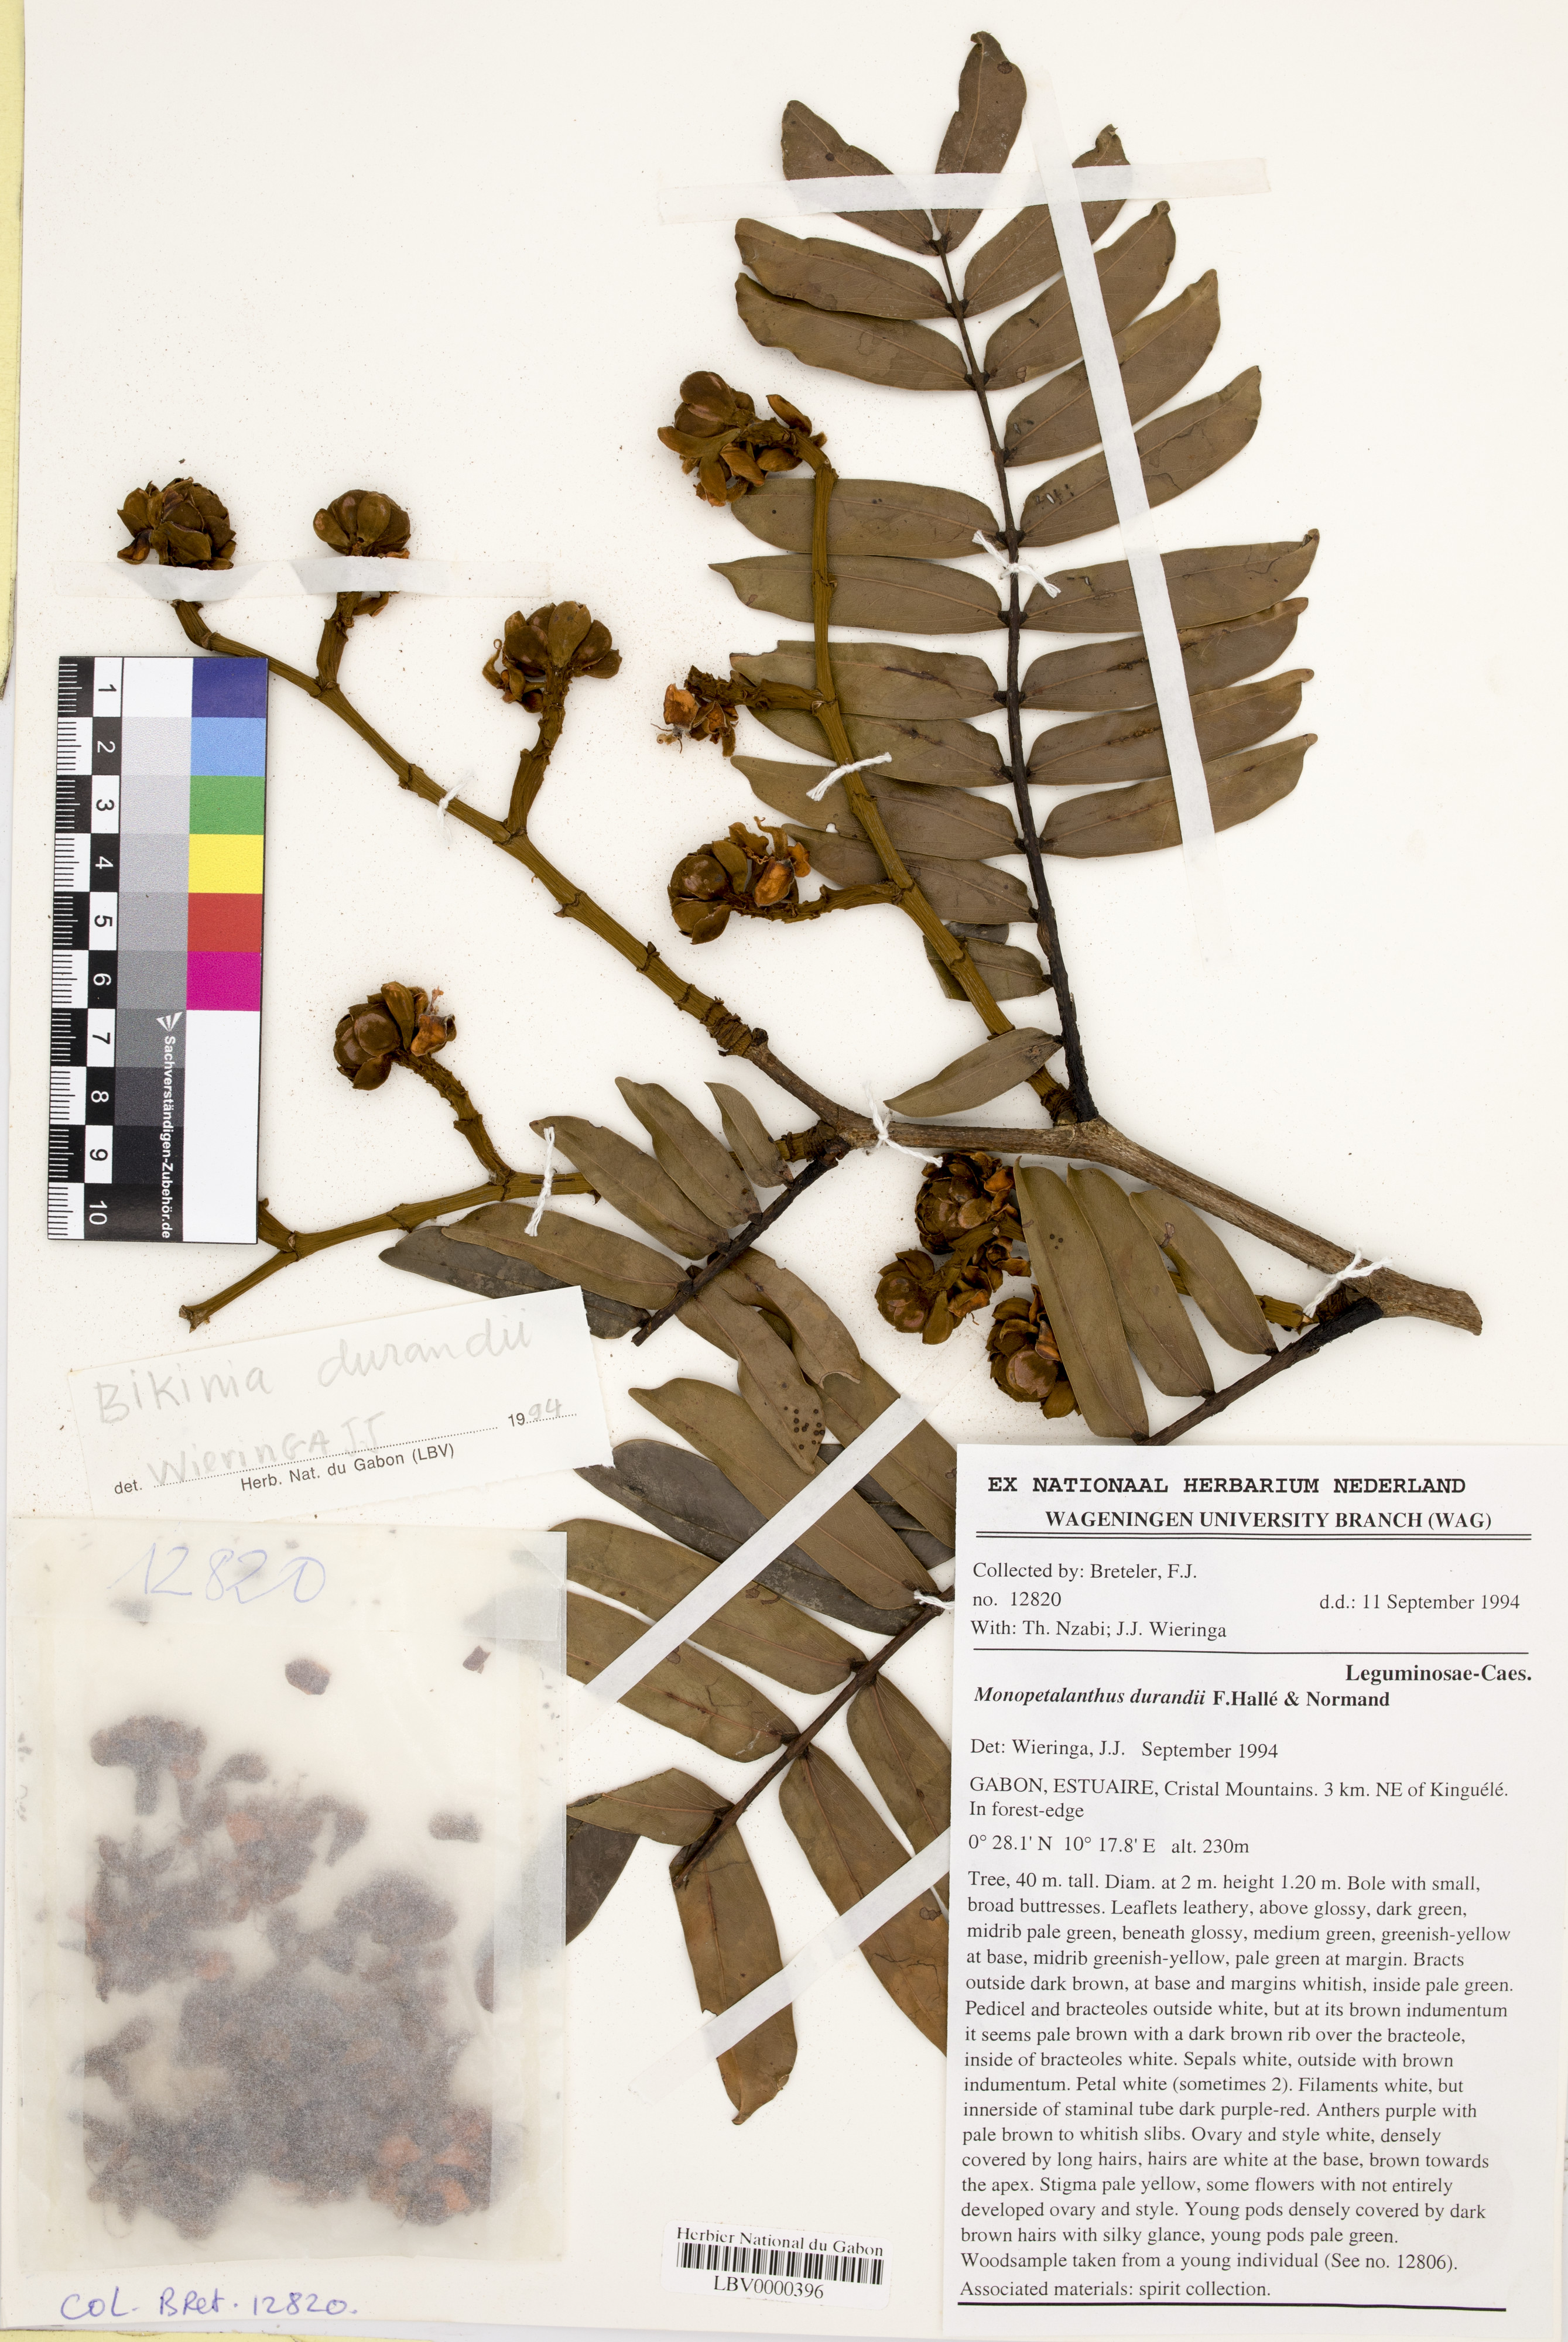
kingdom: Plantae
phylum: Tracheophyta
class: Magnoliopsida
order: Fabales
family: Fabaceae
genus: Bikinia
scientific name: Bikinia durandii
